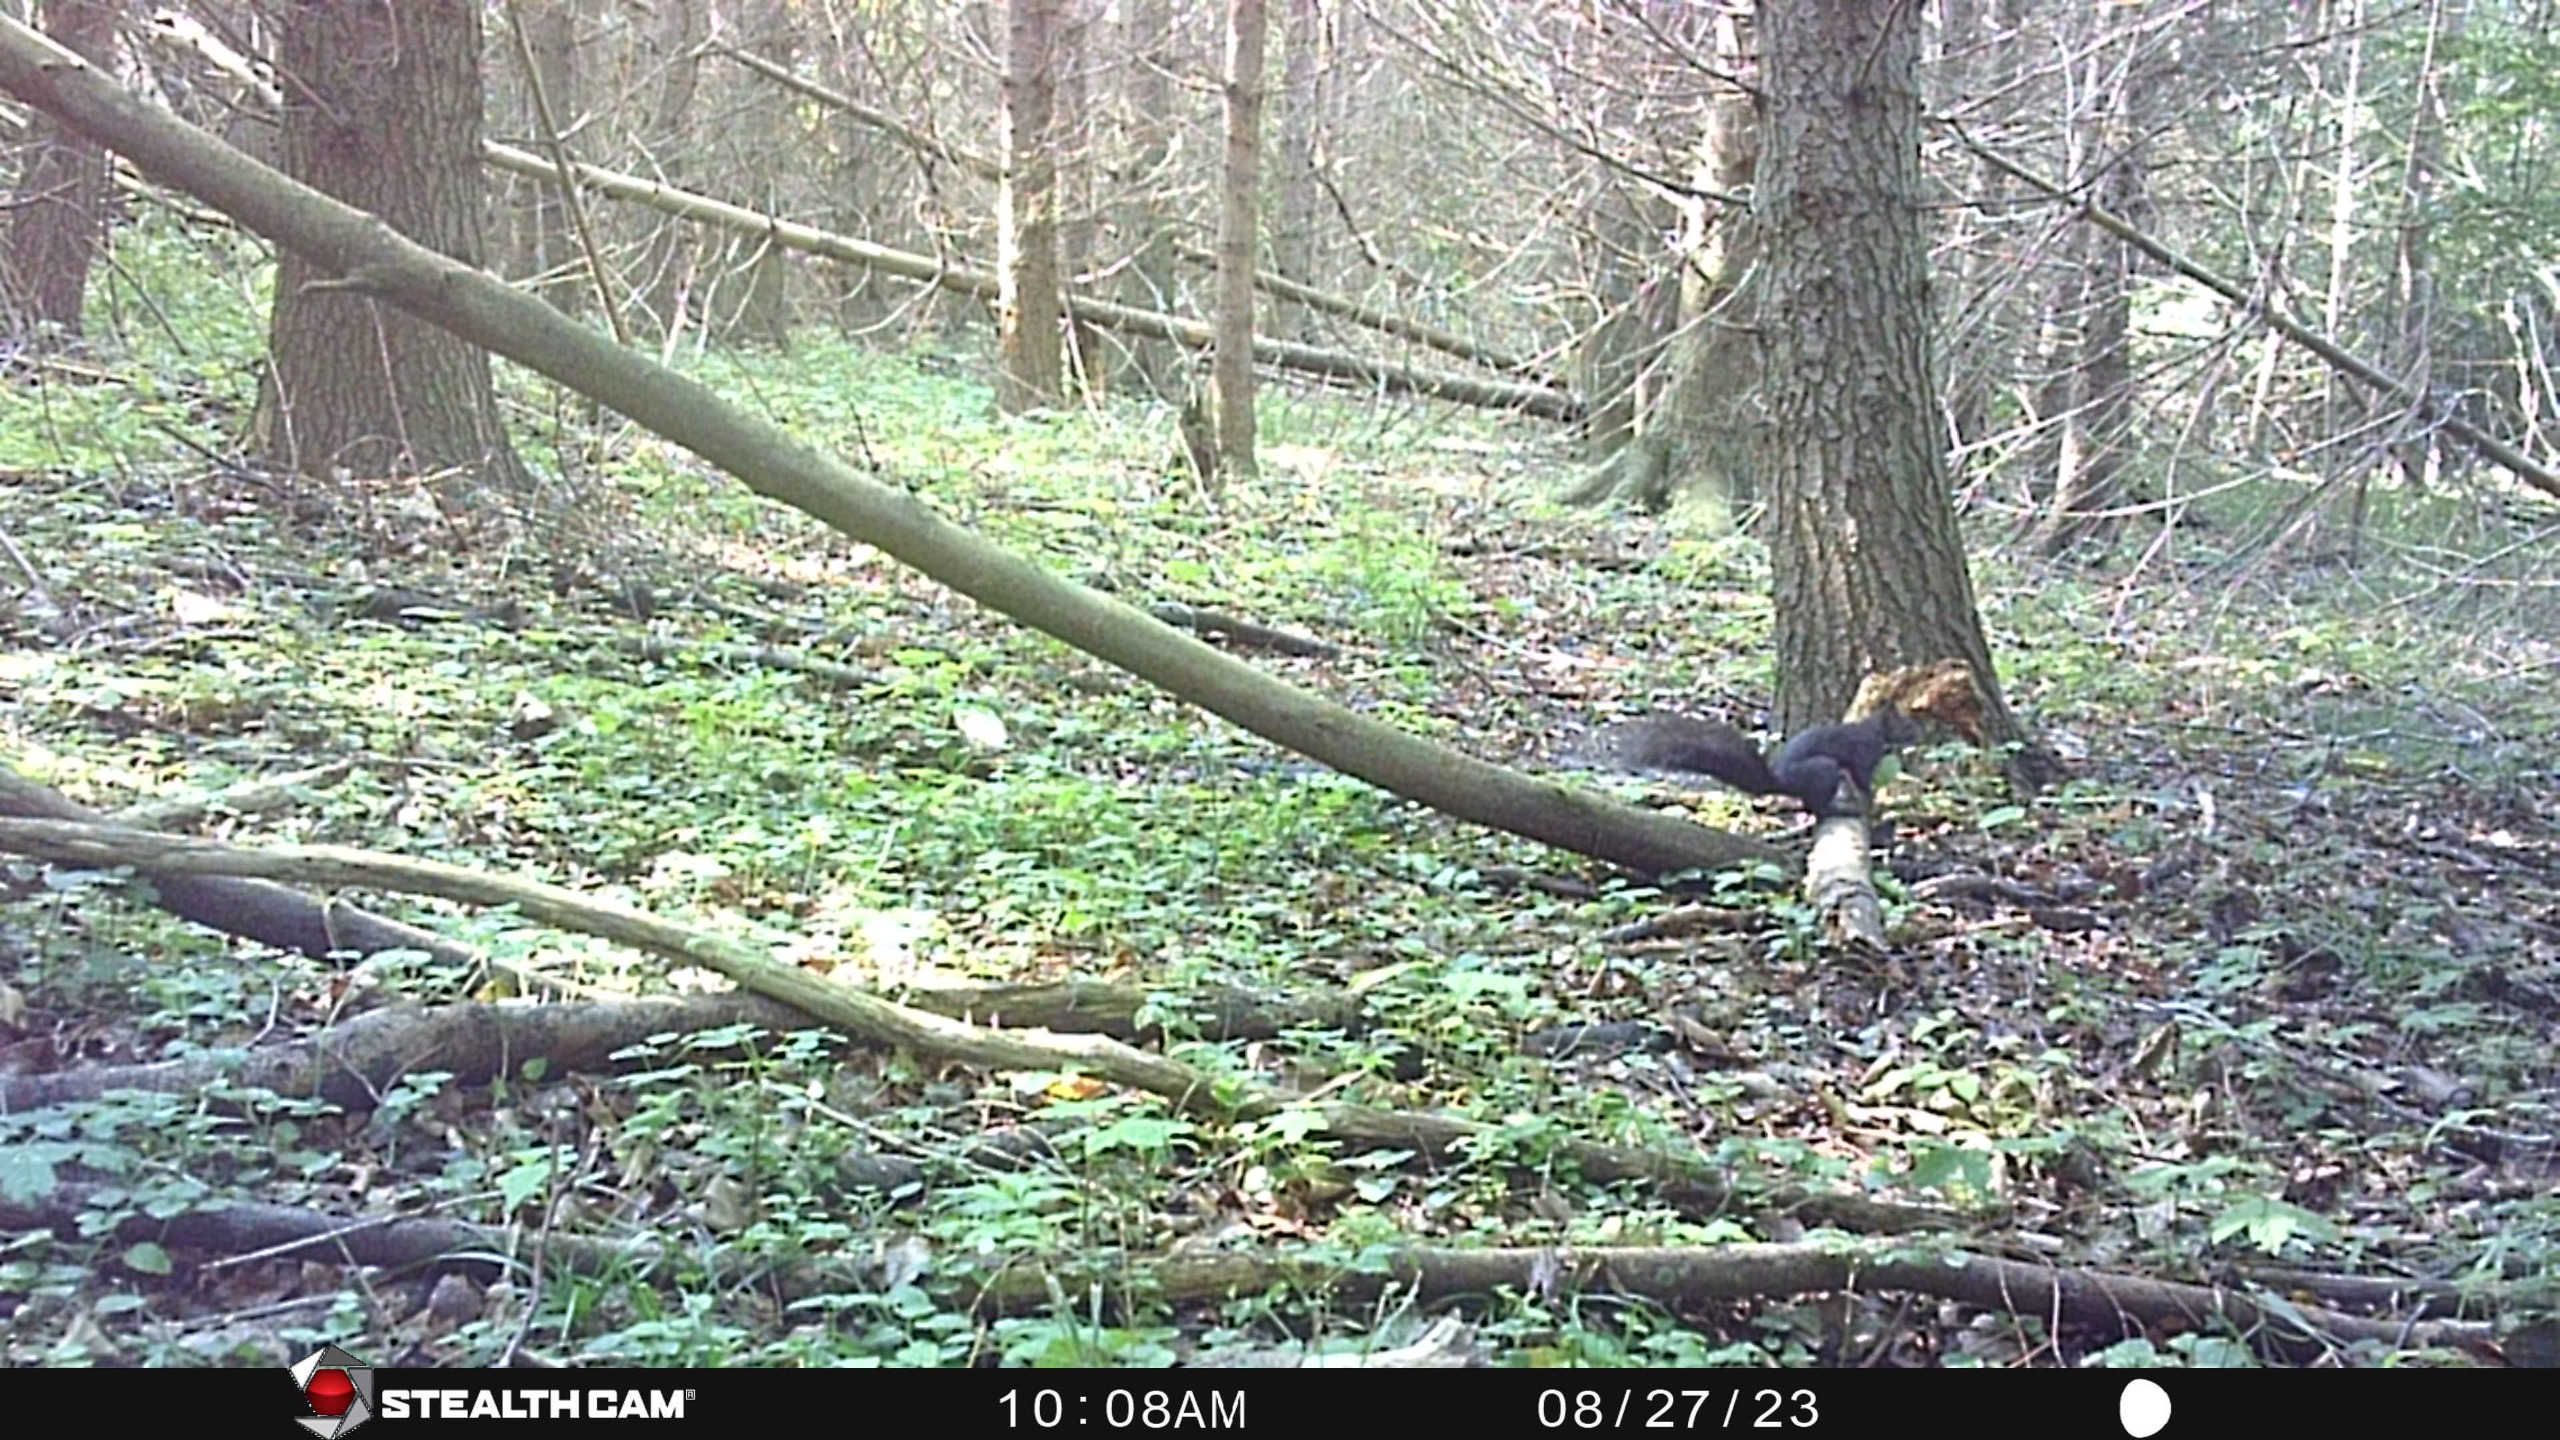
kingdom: Animalia
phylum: Chordata
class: Mammalia
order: Rodentia
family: Sciuridae
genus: Sciurus
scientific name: Sciurus vulgaris
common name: Egern
